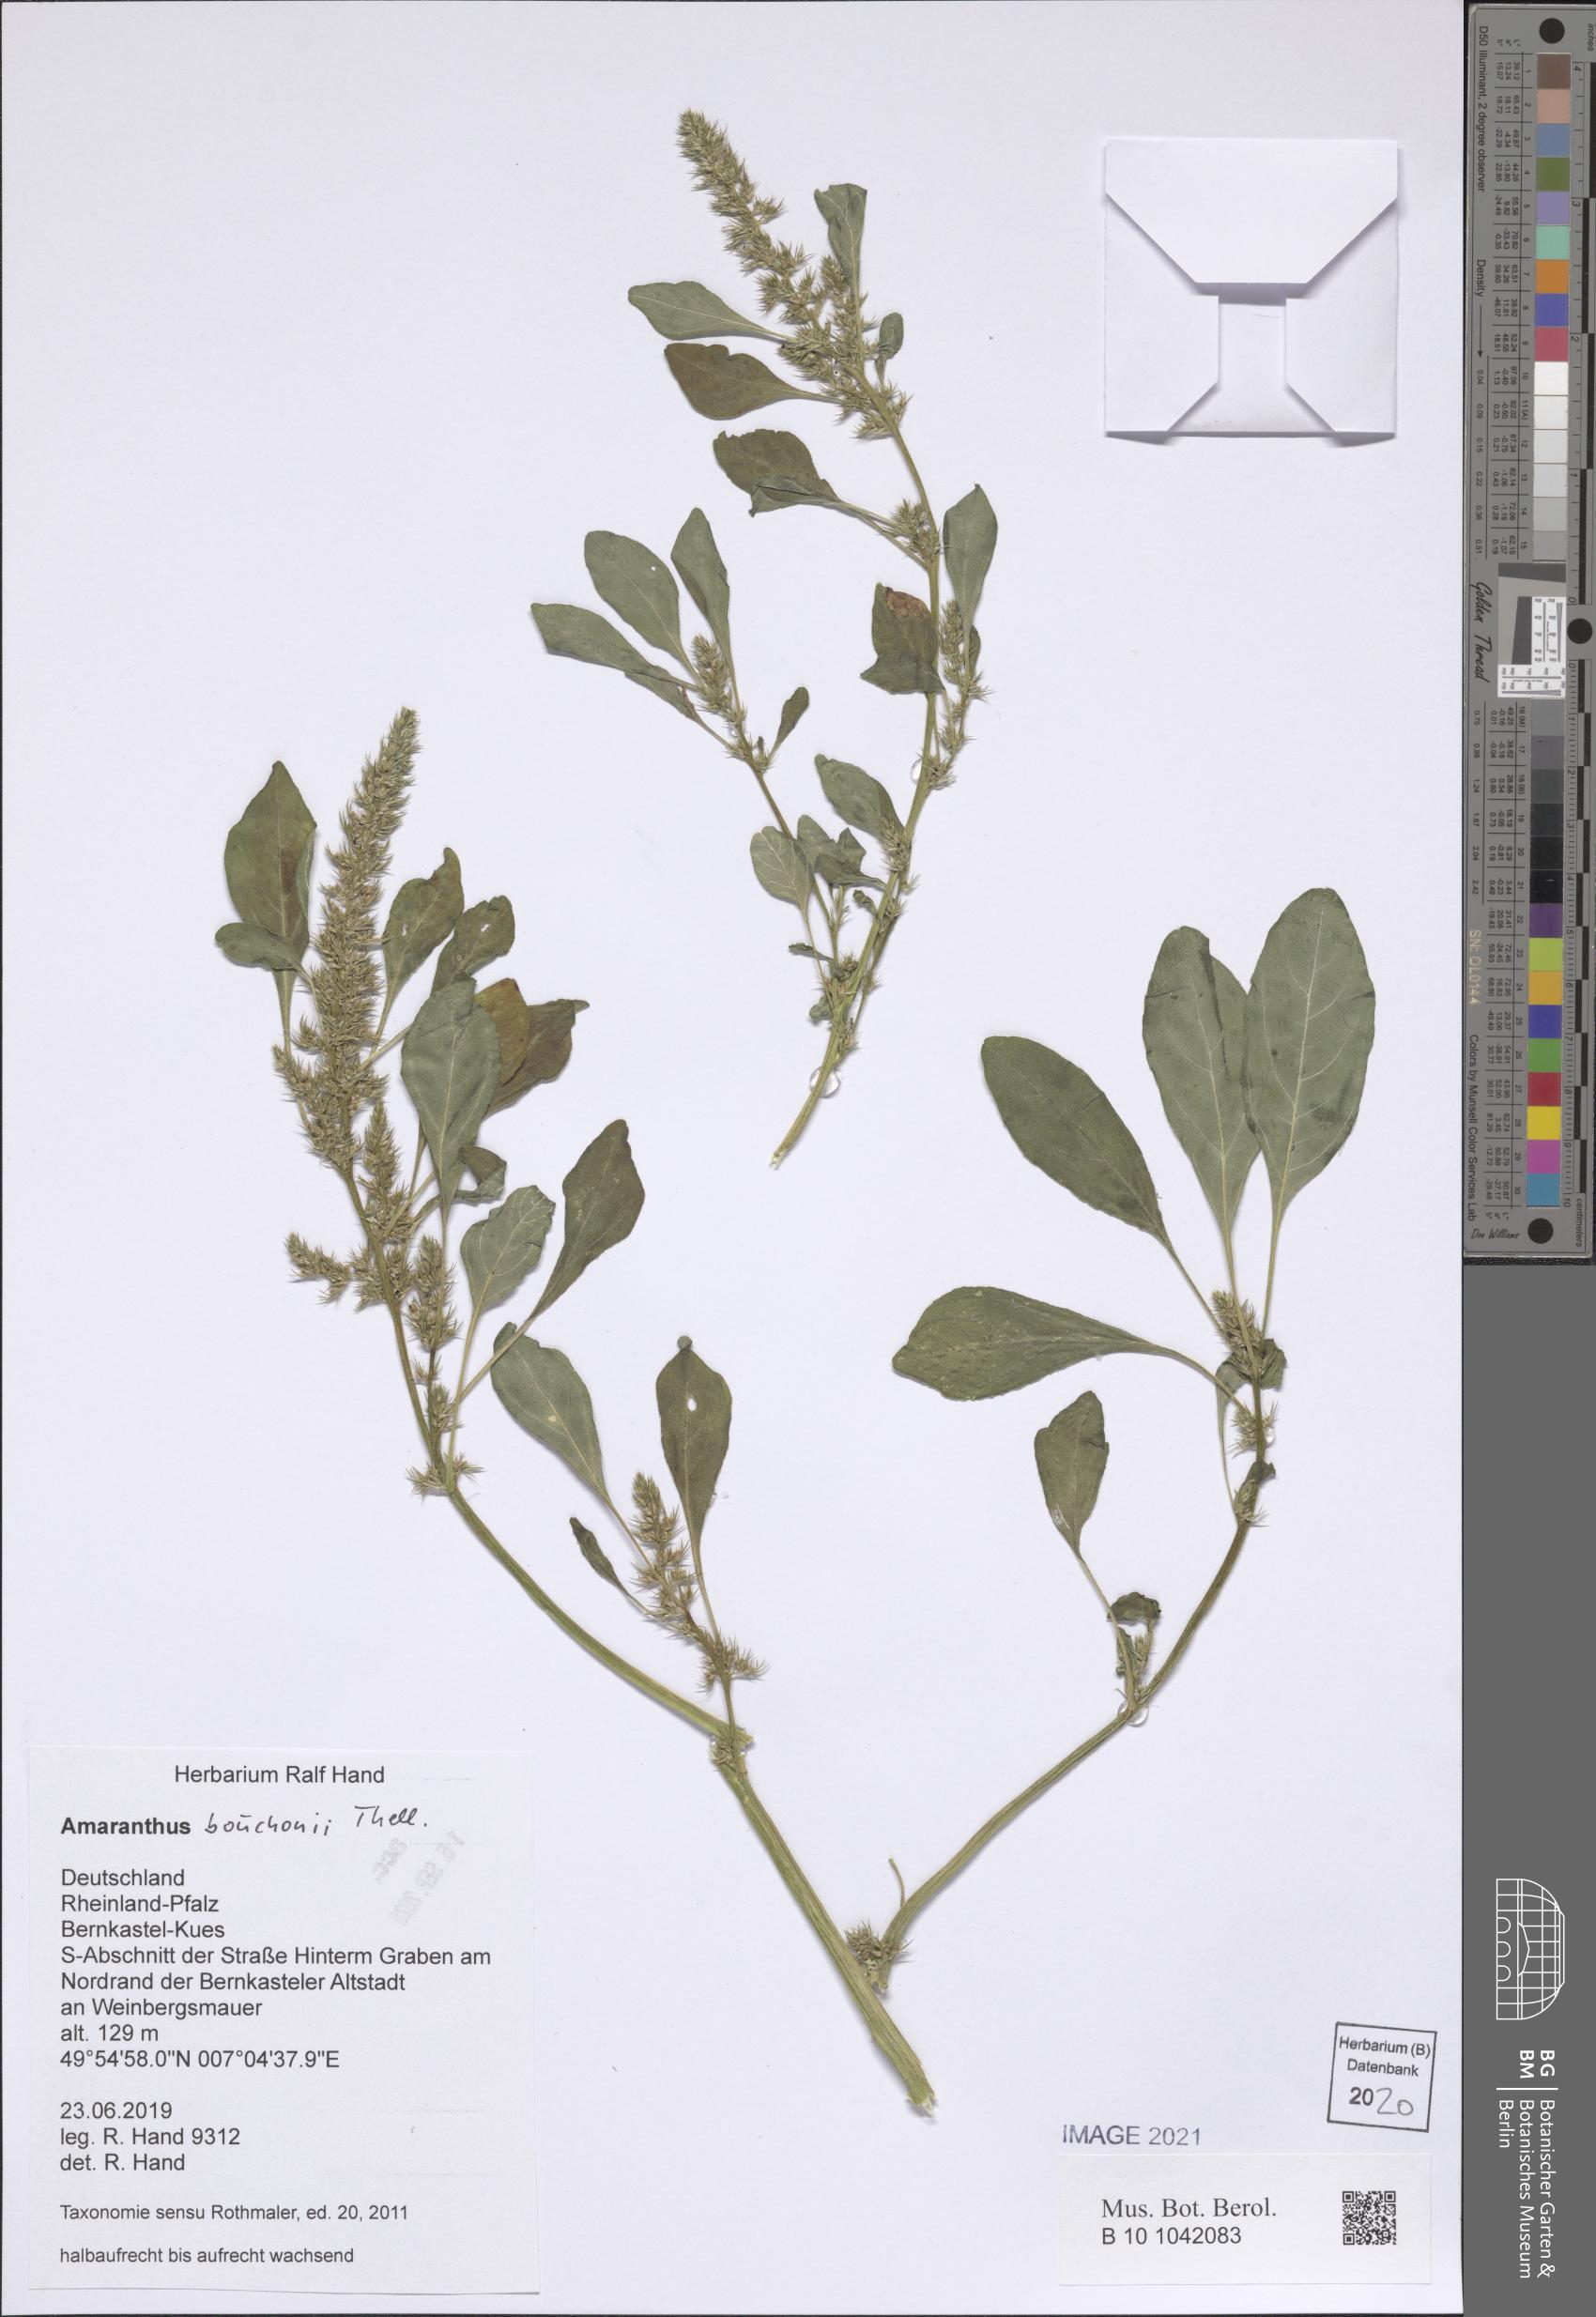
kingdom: Plantae
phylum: Tracheophyta
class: Magnoliopsida
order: Caryophyllales
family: Amaranthaceae
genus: Amaranthus
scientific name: Amaranthus bouchonii
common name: Indehiscent amaranth
